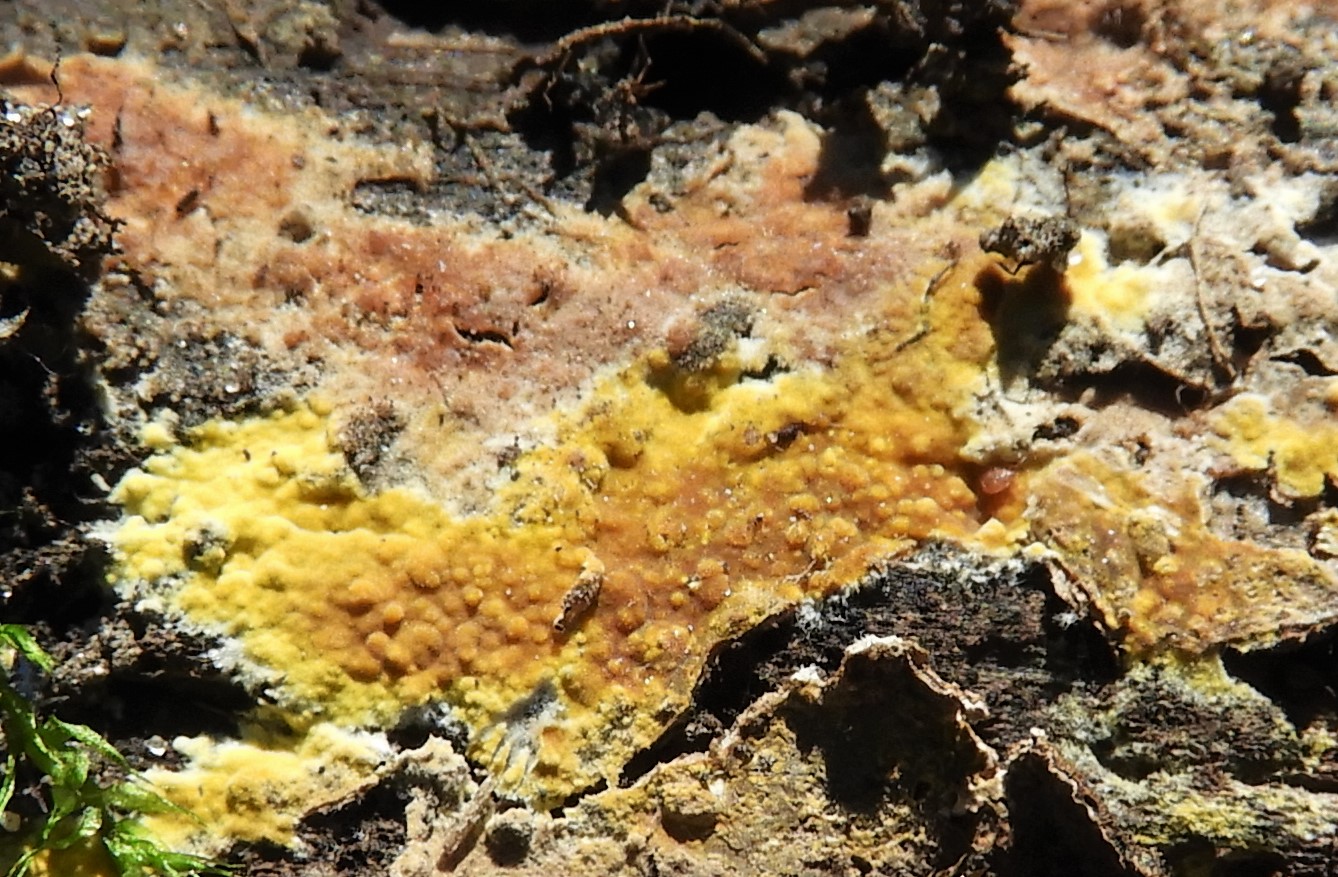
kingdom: Fungi
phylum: Basidiomycota
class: Agaricomycetes
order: Polyporales
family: Meruliaceae
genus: Phlebiodontia
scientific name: Phlebiodontia subochracea
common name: svovl-åresvamp
